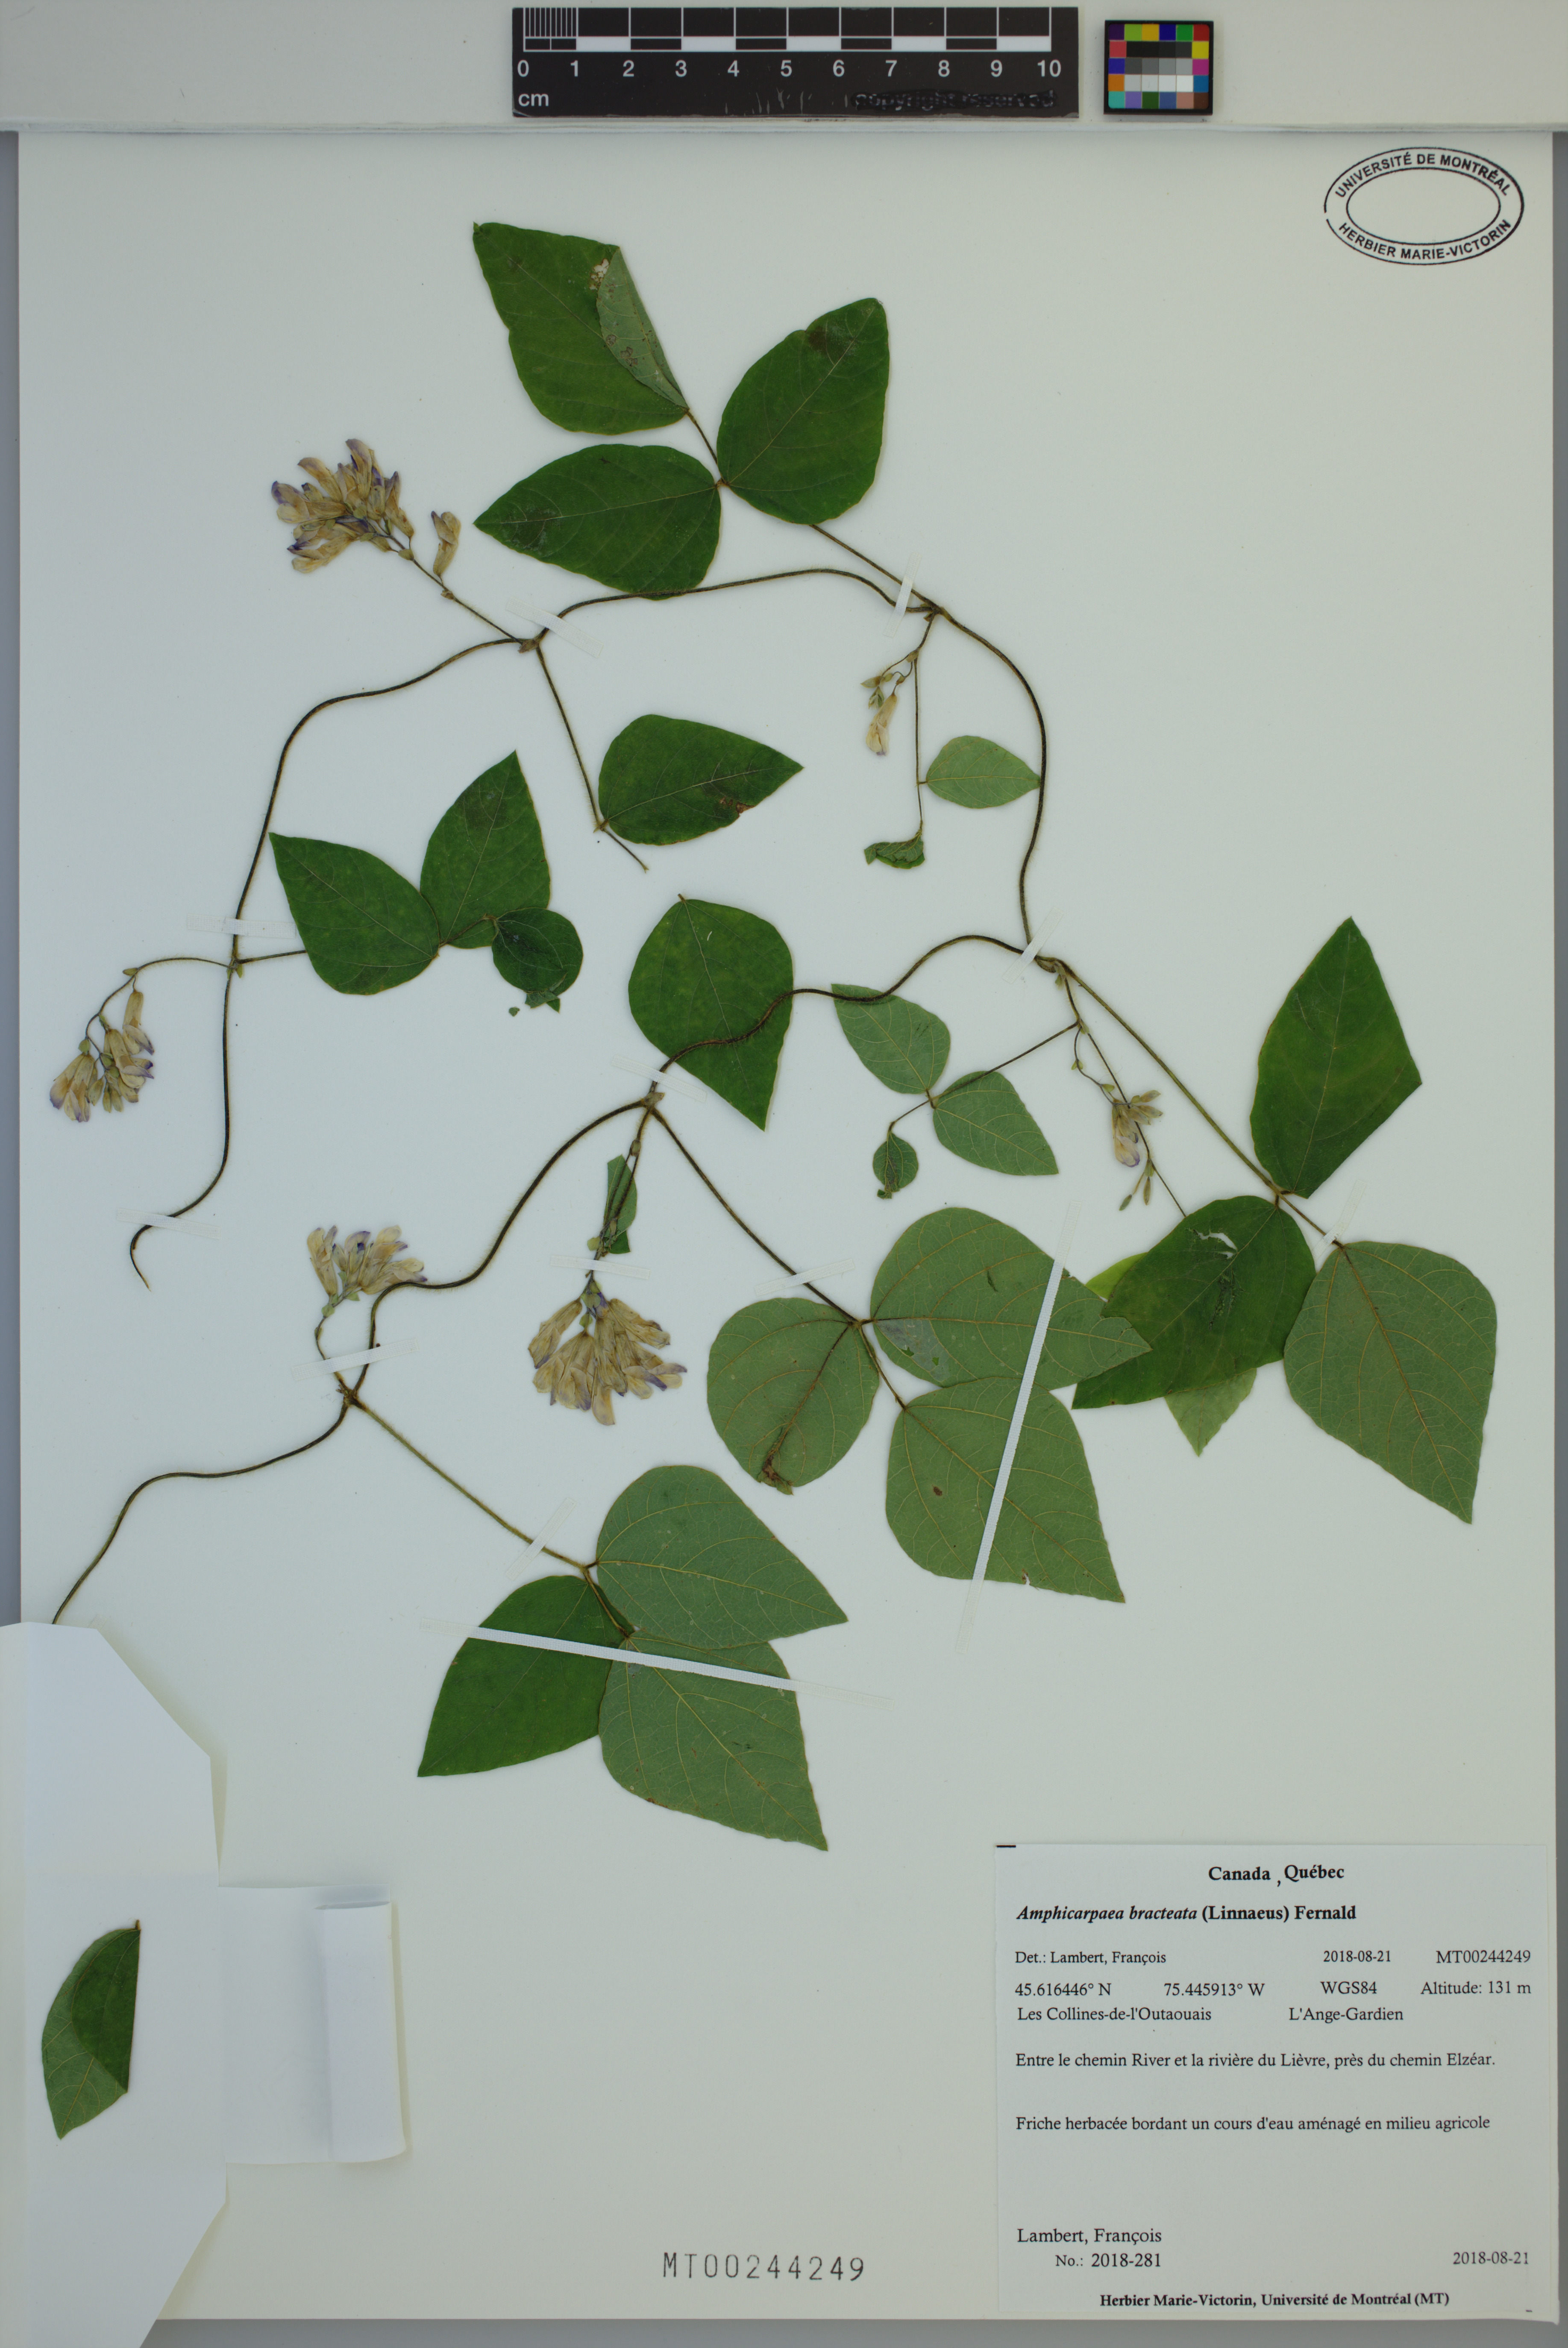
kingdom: Plantae
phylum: Tracheophyta
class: Magnoliopsida
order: Fabales
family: Fabaceae
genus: Amphicarpaea
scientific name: Amphicarpaea bracteata
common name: American hog peanut
